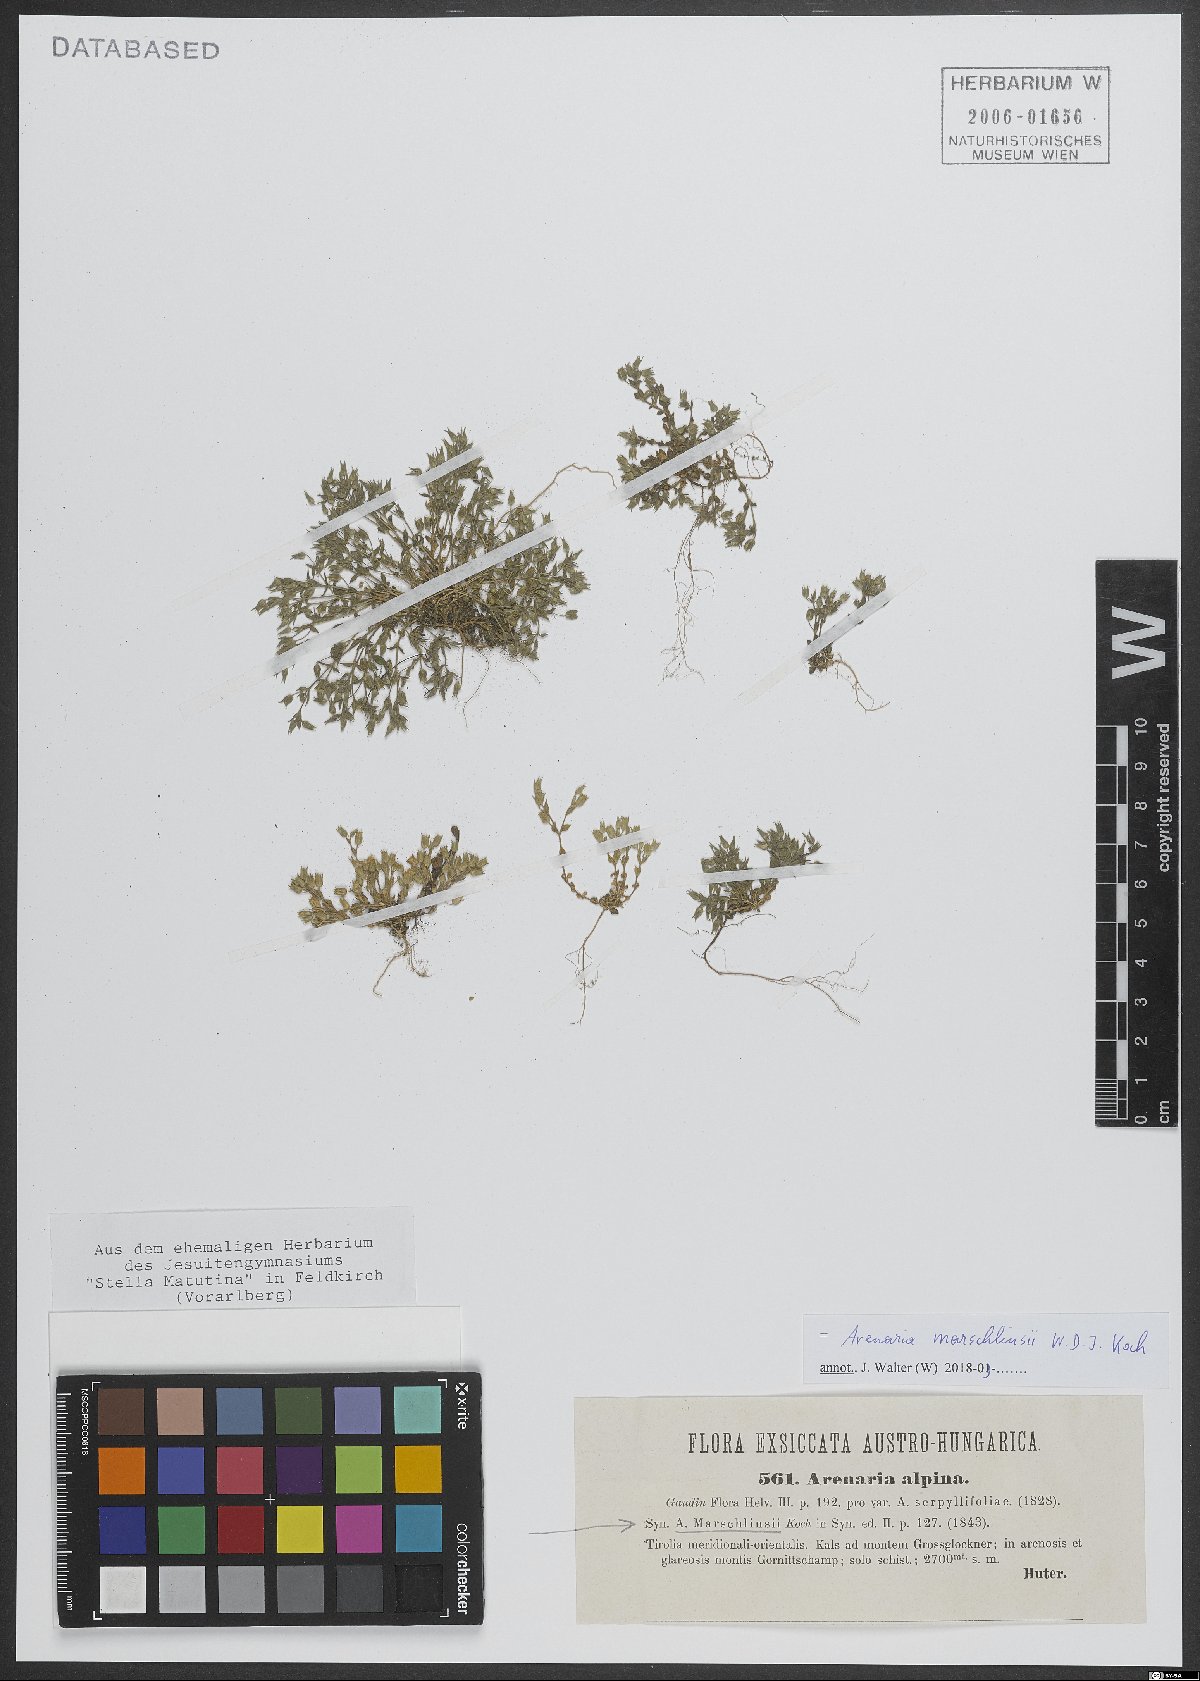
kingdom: Plantae
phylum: Tracheophyta
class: Magnoliopsida
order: Caryophyllales
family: Polygonaceae
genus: Rumex
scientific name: Rumex acetosa
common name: Garden sorrel
